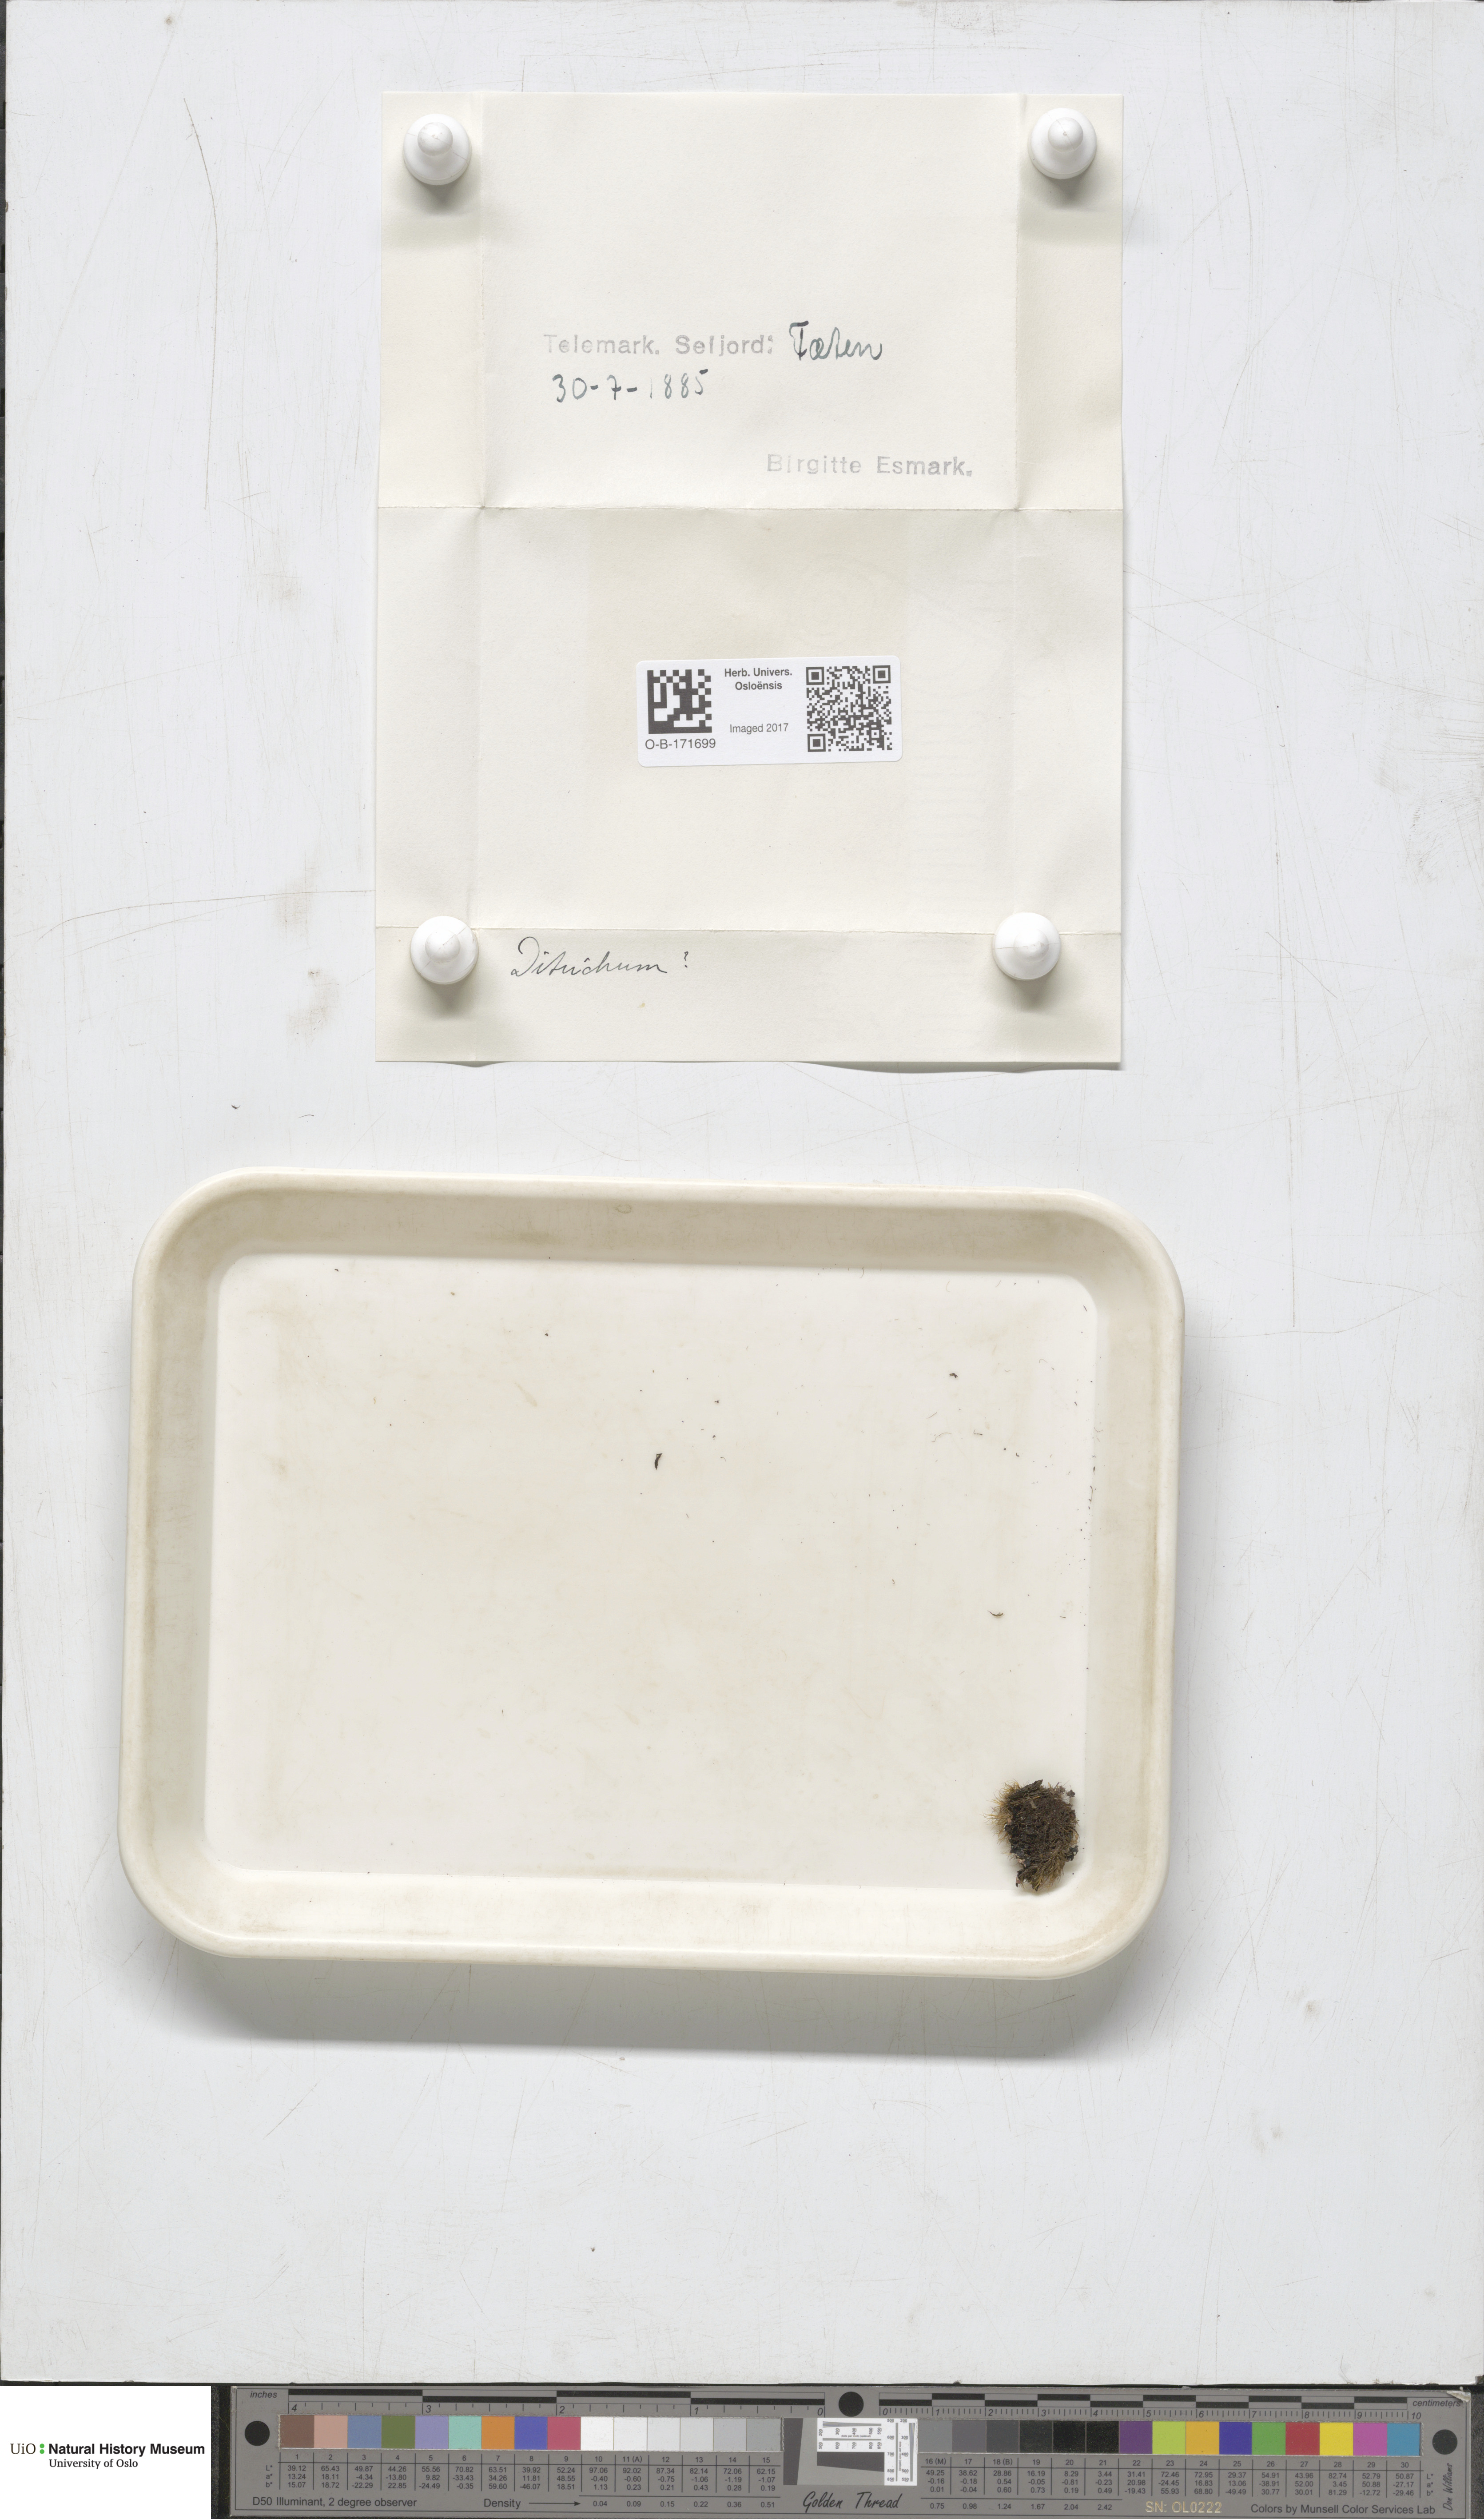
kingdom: Plantae
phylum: Bryophyta
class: Bryopsida
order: Dicranales
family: Ditrichaceae
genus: Ditrichum
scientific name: Ditrichum
